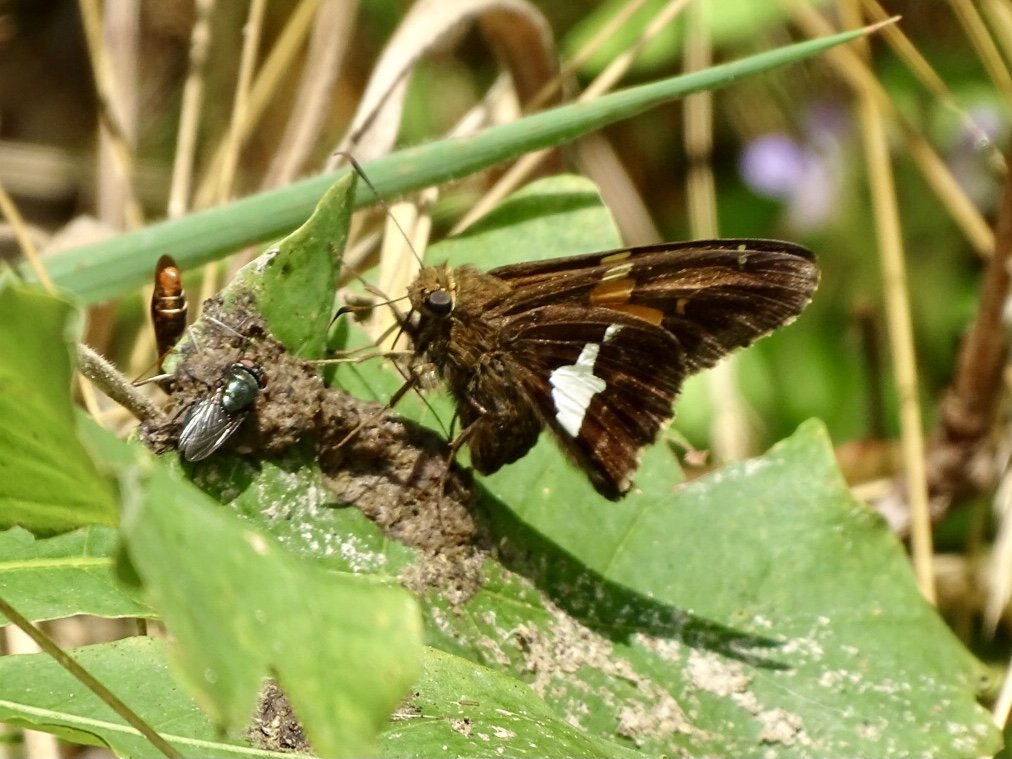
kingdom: Animalia
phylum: Arthropoda
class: Insecta
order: Lepidoptera
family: Hesperiidae
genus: Epargyreus
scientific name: Epargyreus clarus
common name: Silver-spotted Skipper
